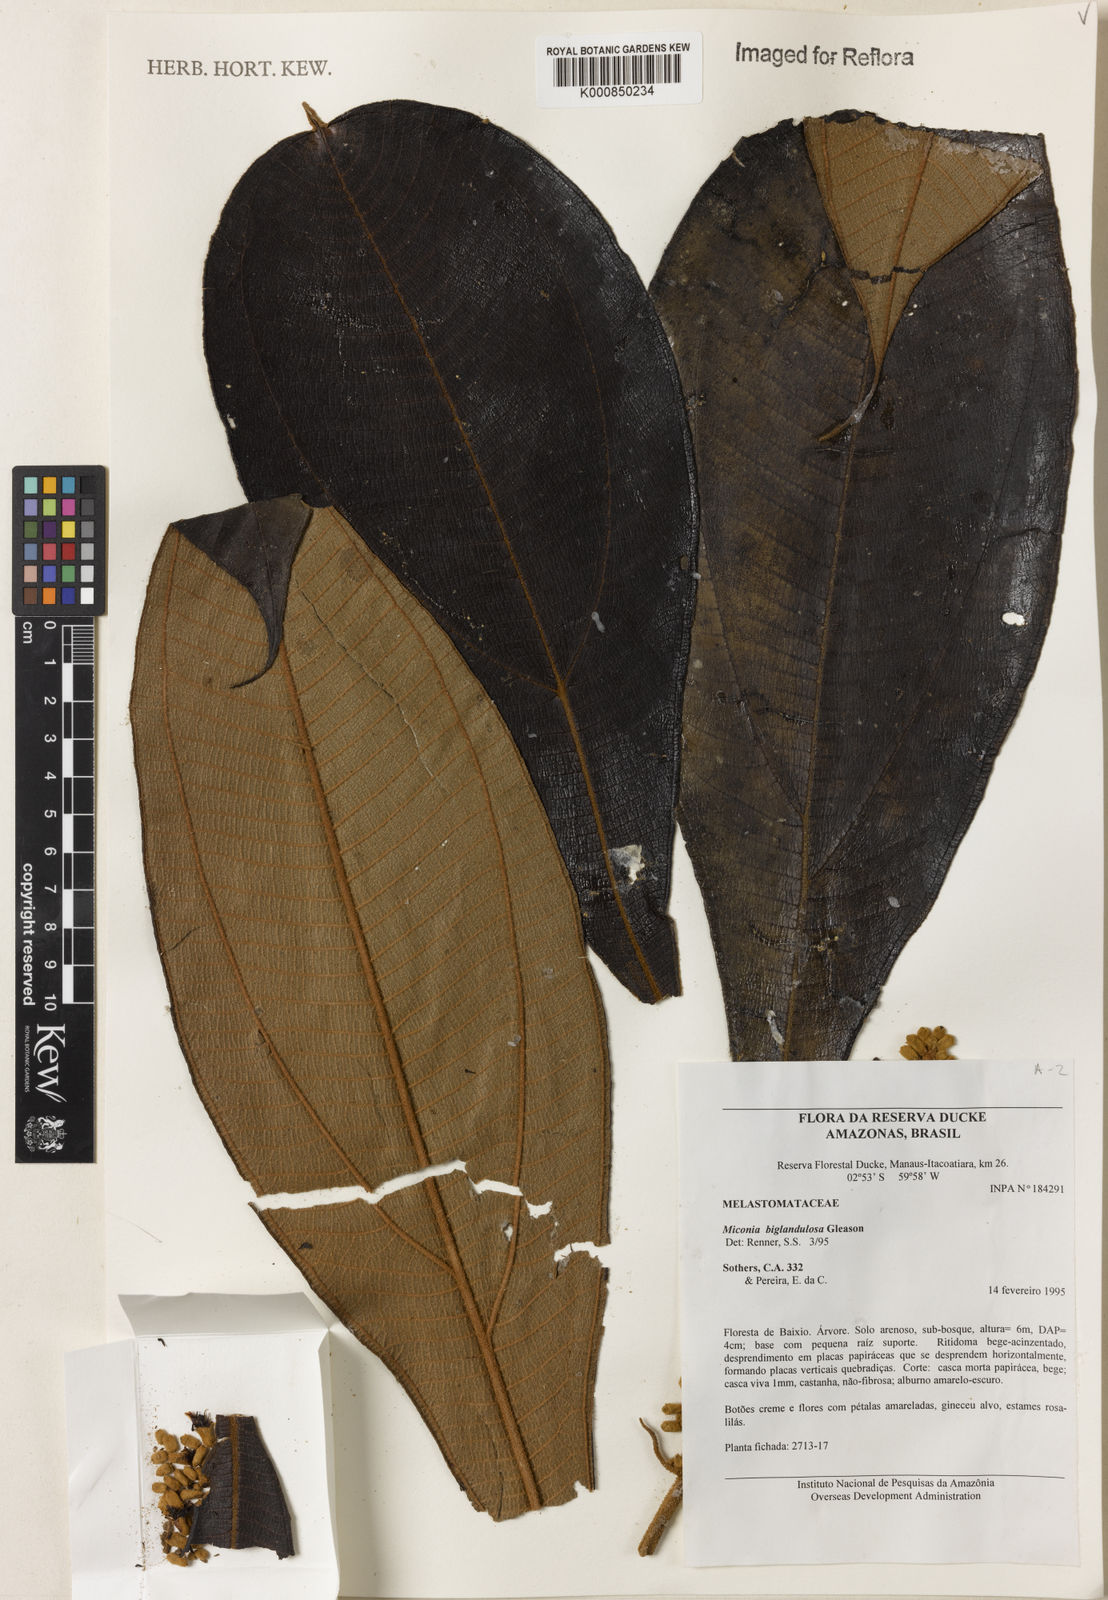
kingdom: Plantae
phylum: Tracheophyta
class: Magnoliopsida
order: Myrtales
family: Melastomataceae
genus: Miconia
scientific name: Miconia biglandulosa
